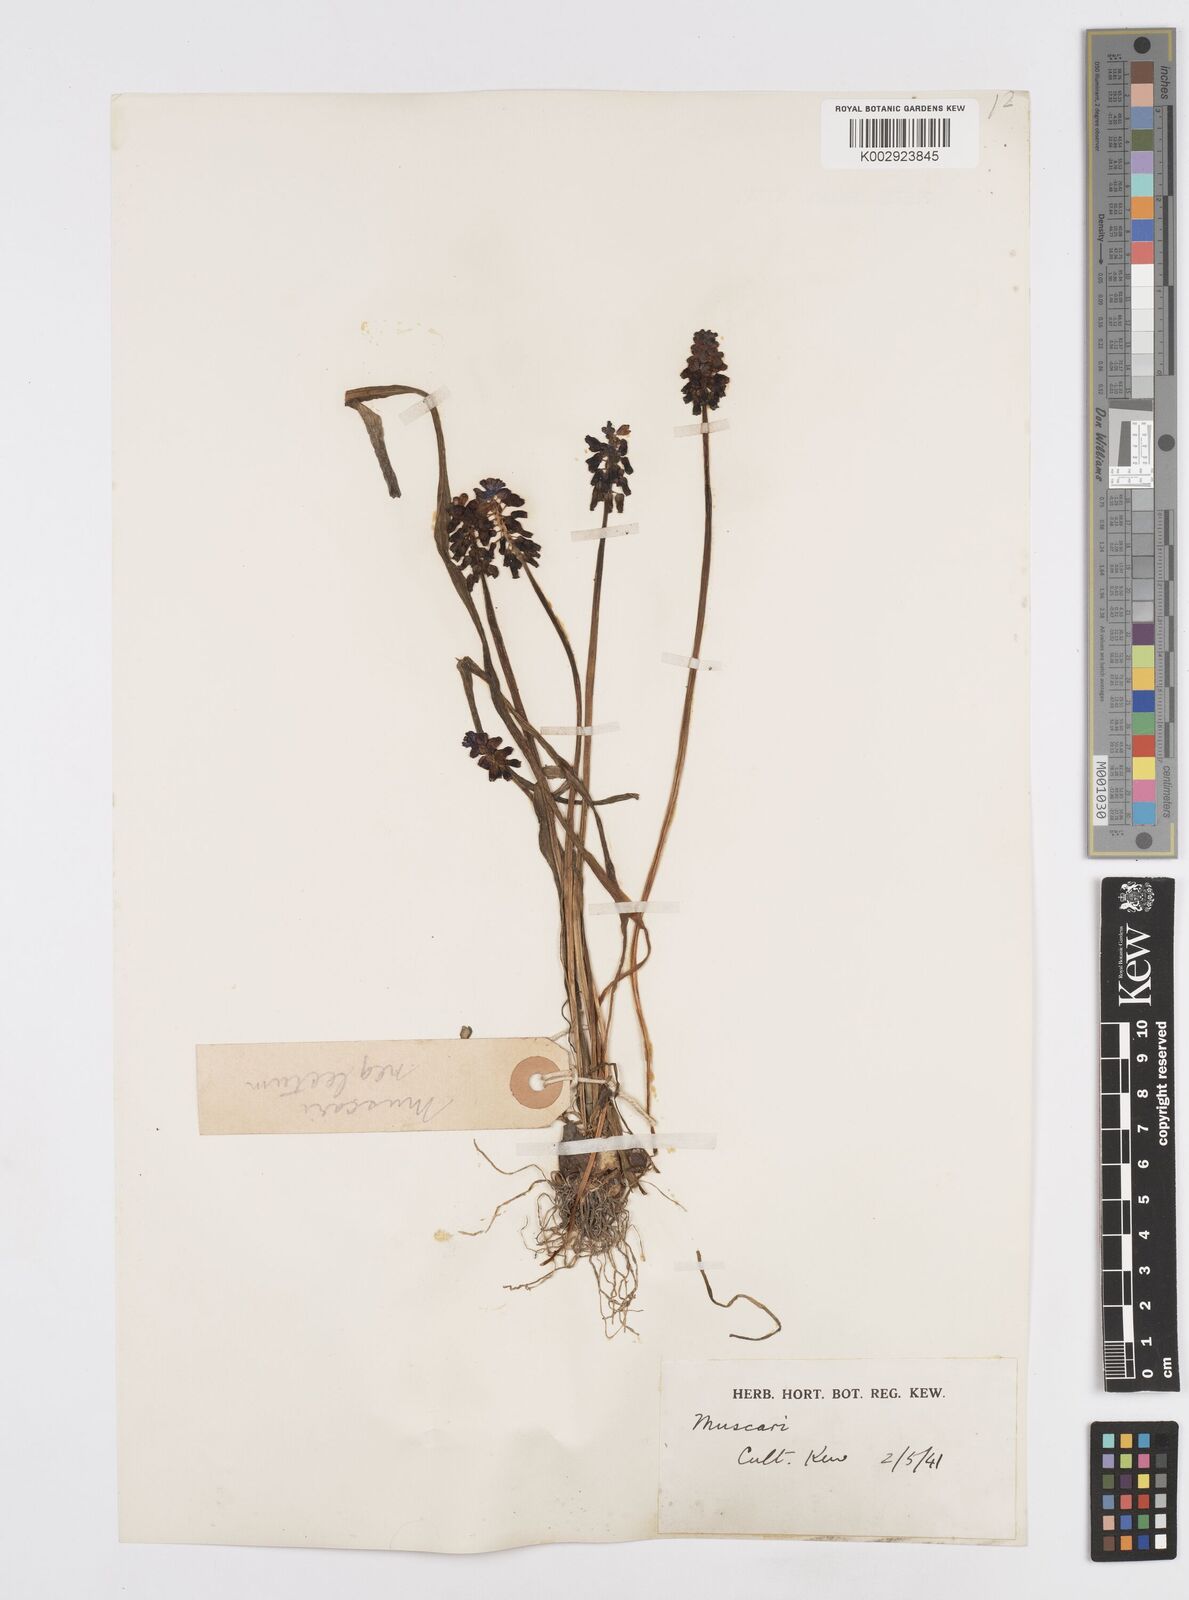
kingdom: Plantae
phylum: Tracheophyta
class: Liliopsida
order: Asparagales
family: Asparagaceae
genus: Muscari
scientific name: Muscari neglectum
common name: Grape-hyacinth
